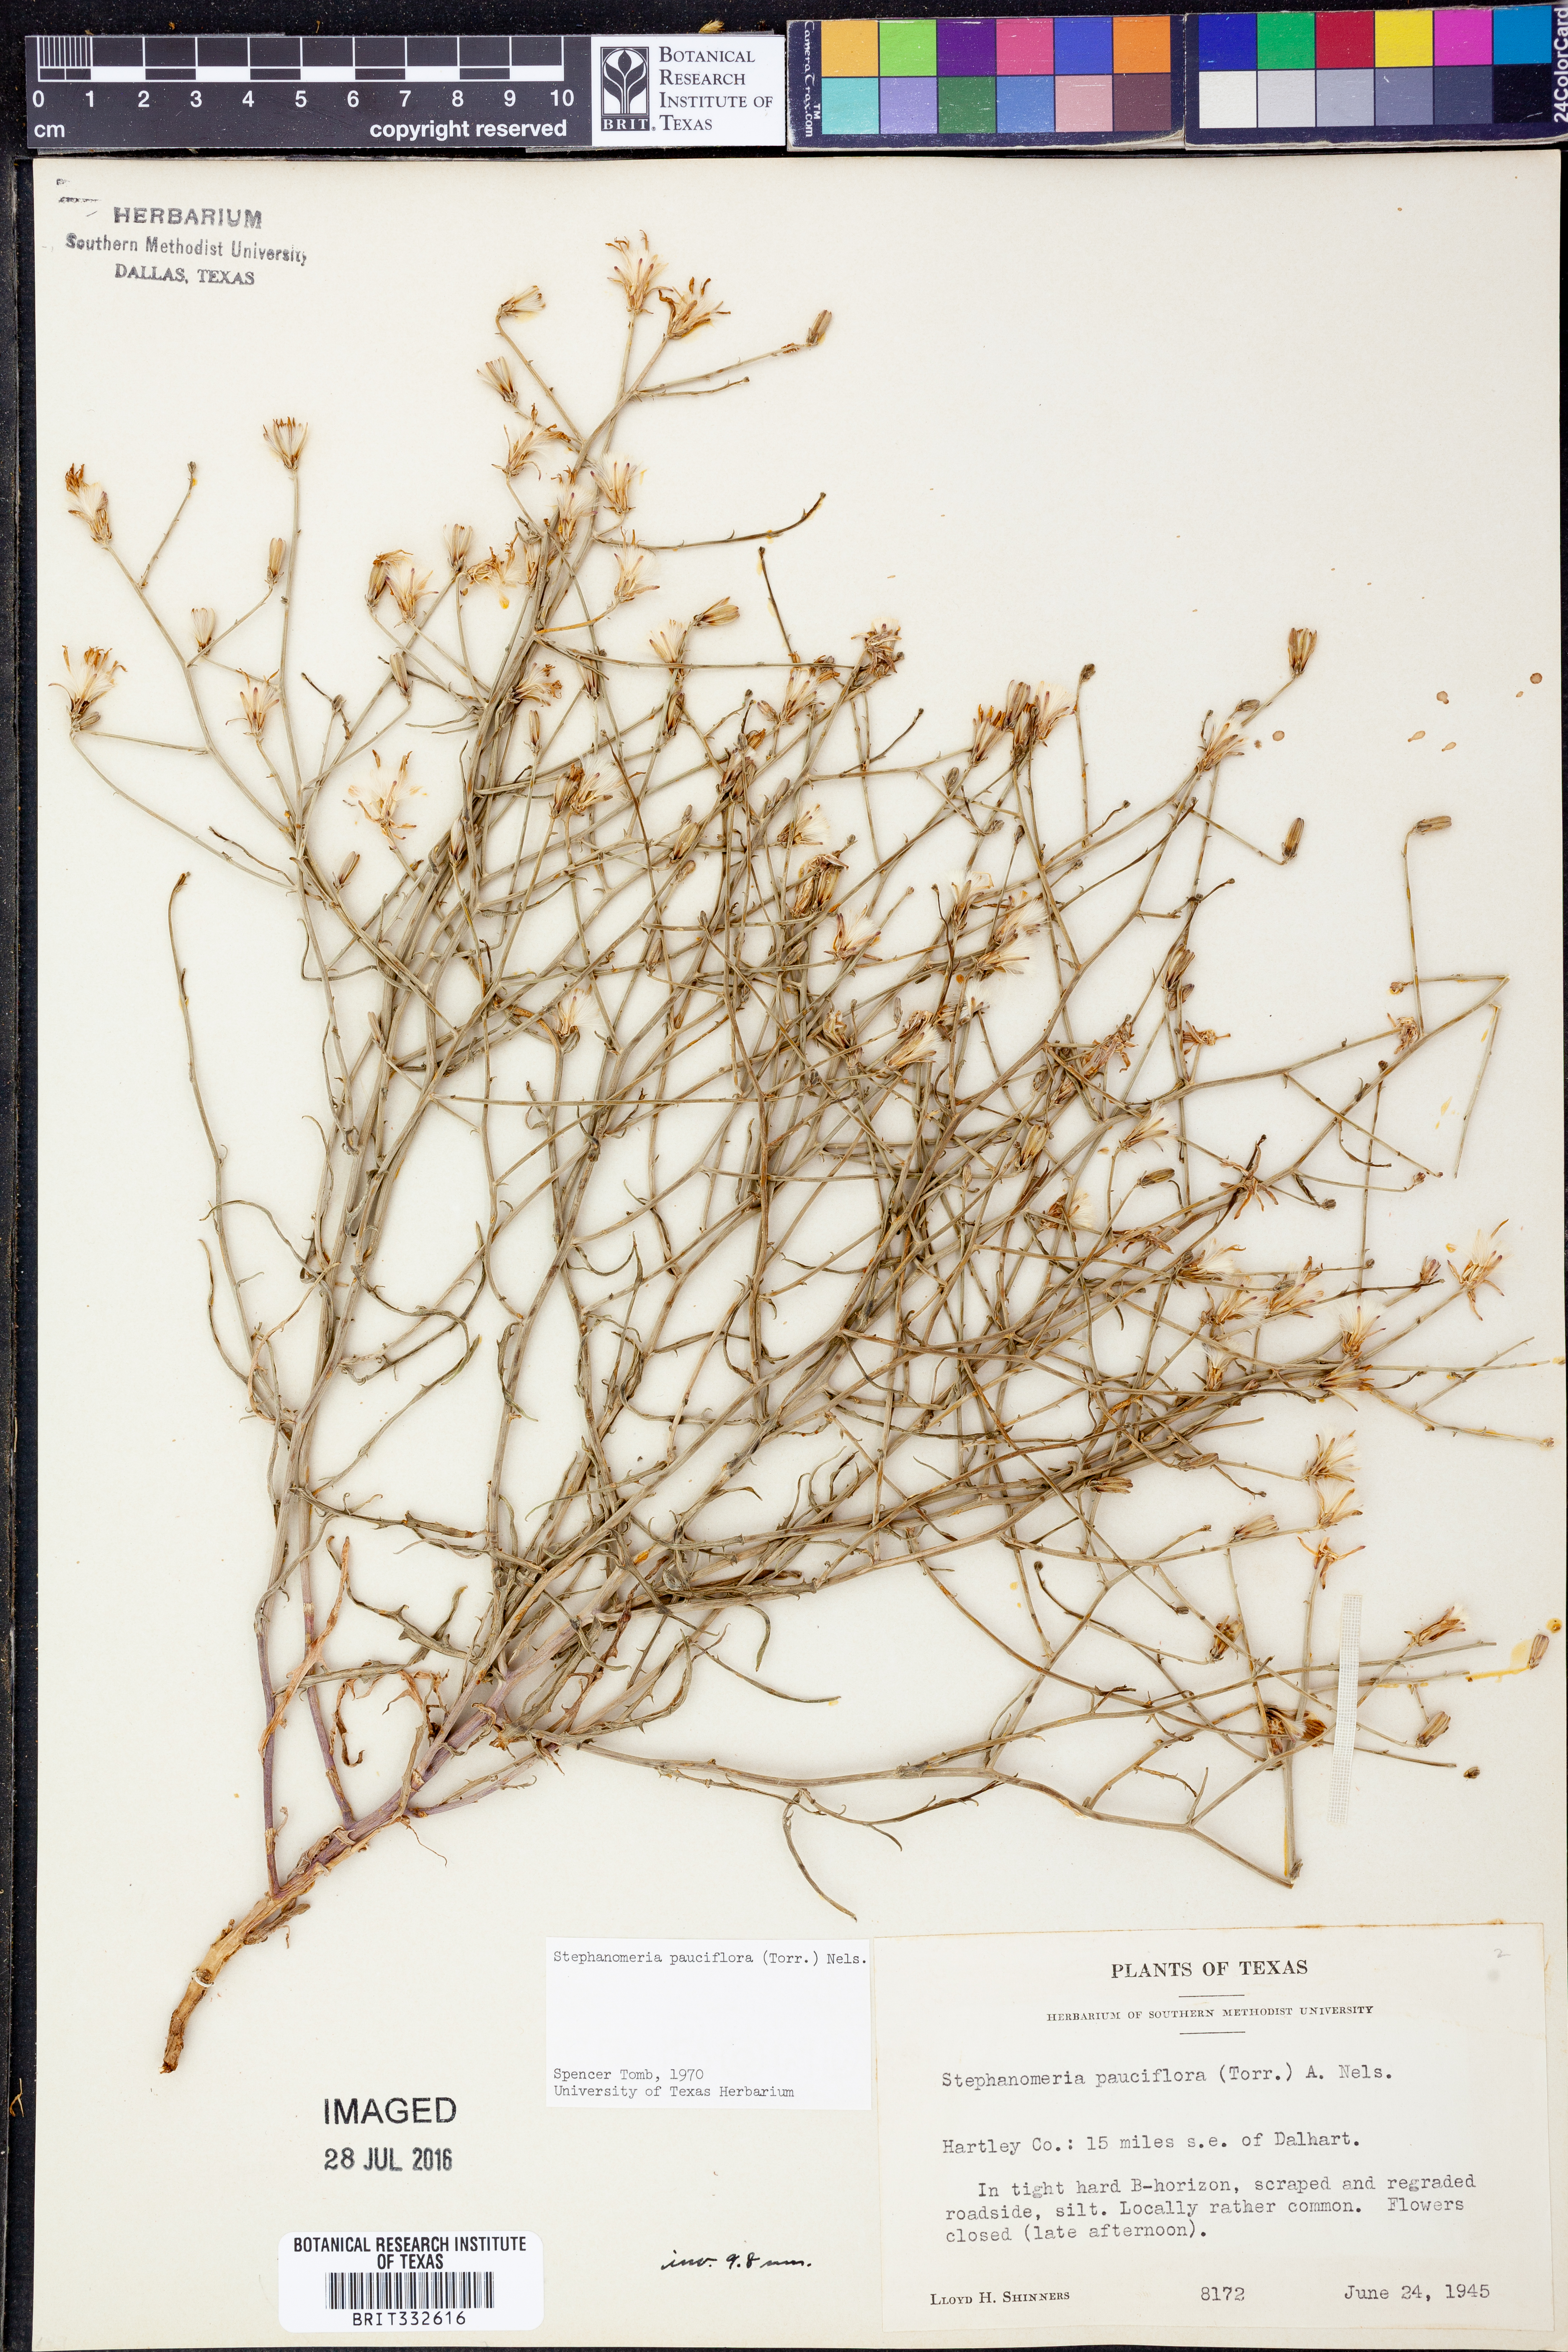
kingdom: Plantae
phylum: Tracheophyta
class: Magnoliopsida
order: Asterales
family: Asteraceae
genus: Stephanomeria
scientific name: Stephanomeria pauciflora
